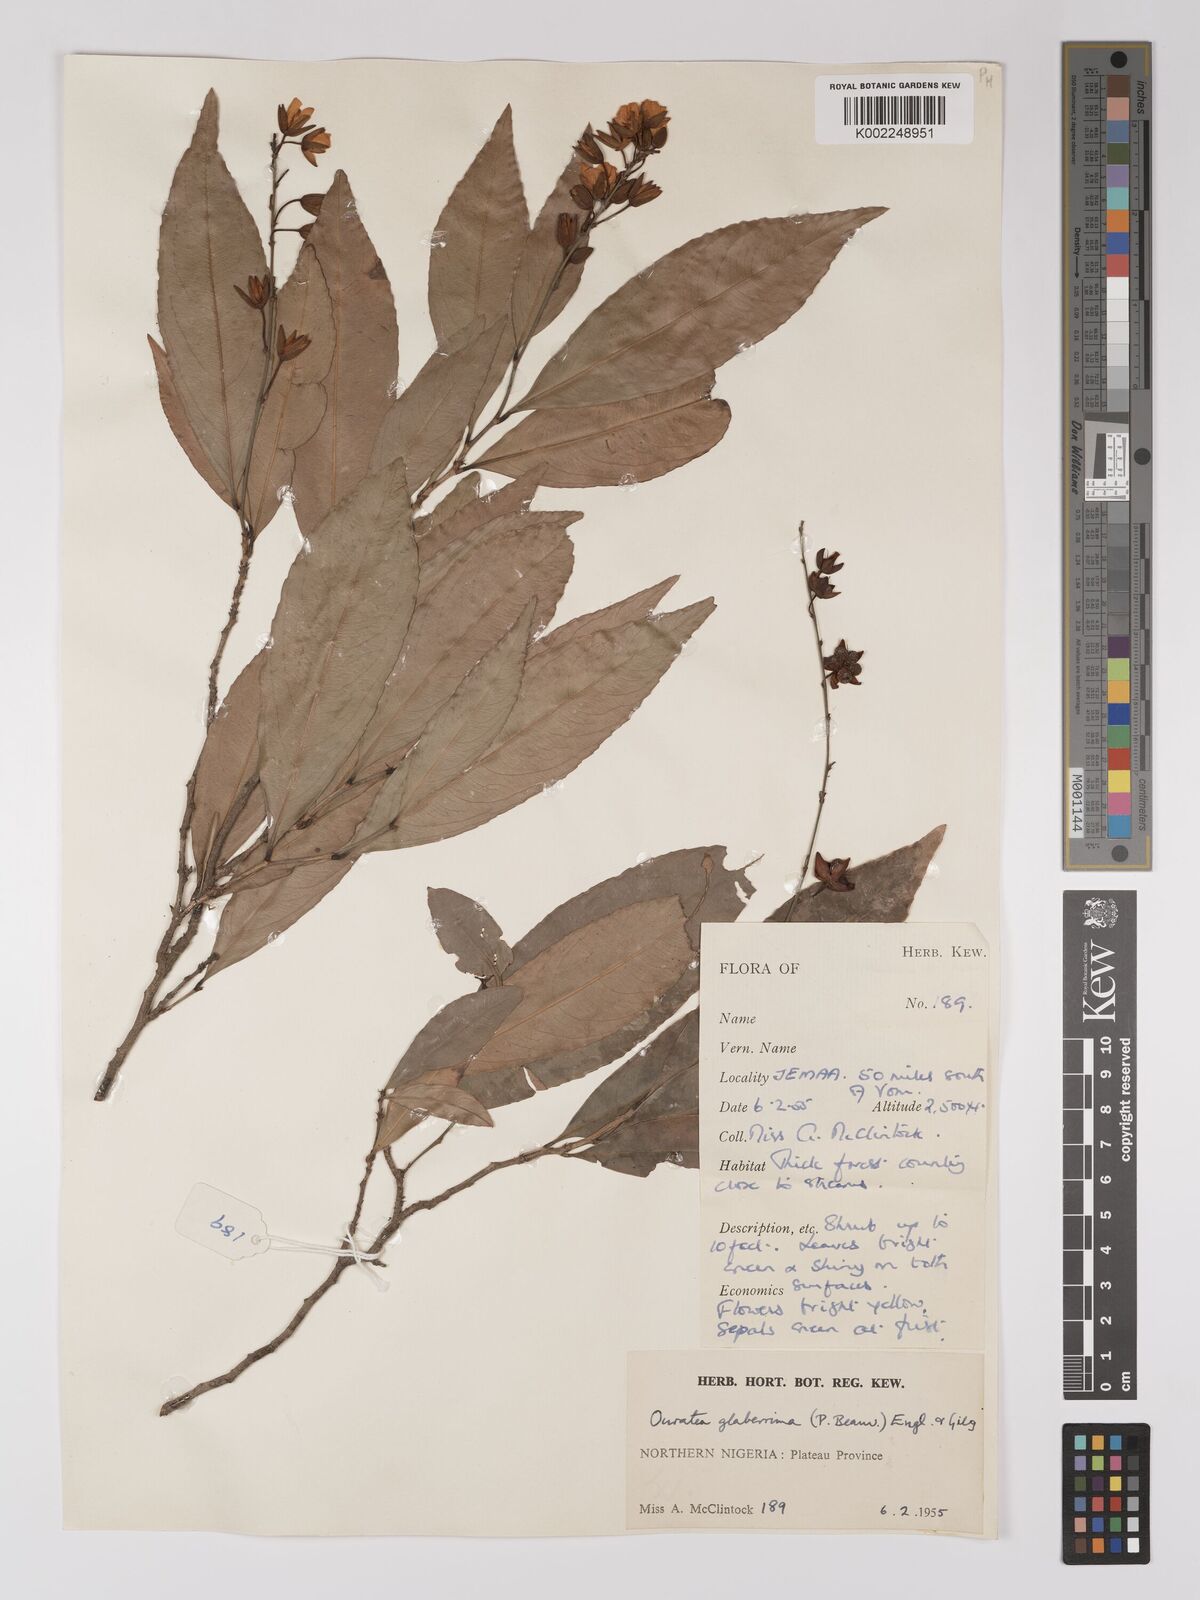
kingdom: Plantae
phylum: Tracheophyta
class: Magnoliopsida
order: Malpighiales
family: Ochnaceae
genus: Campylospermum
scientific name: Campylospermum glaberrimum
